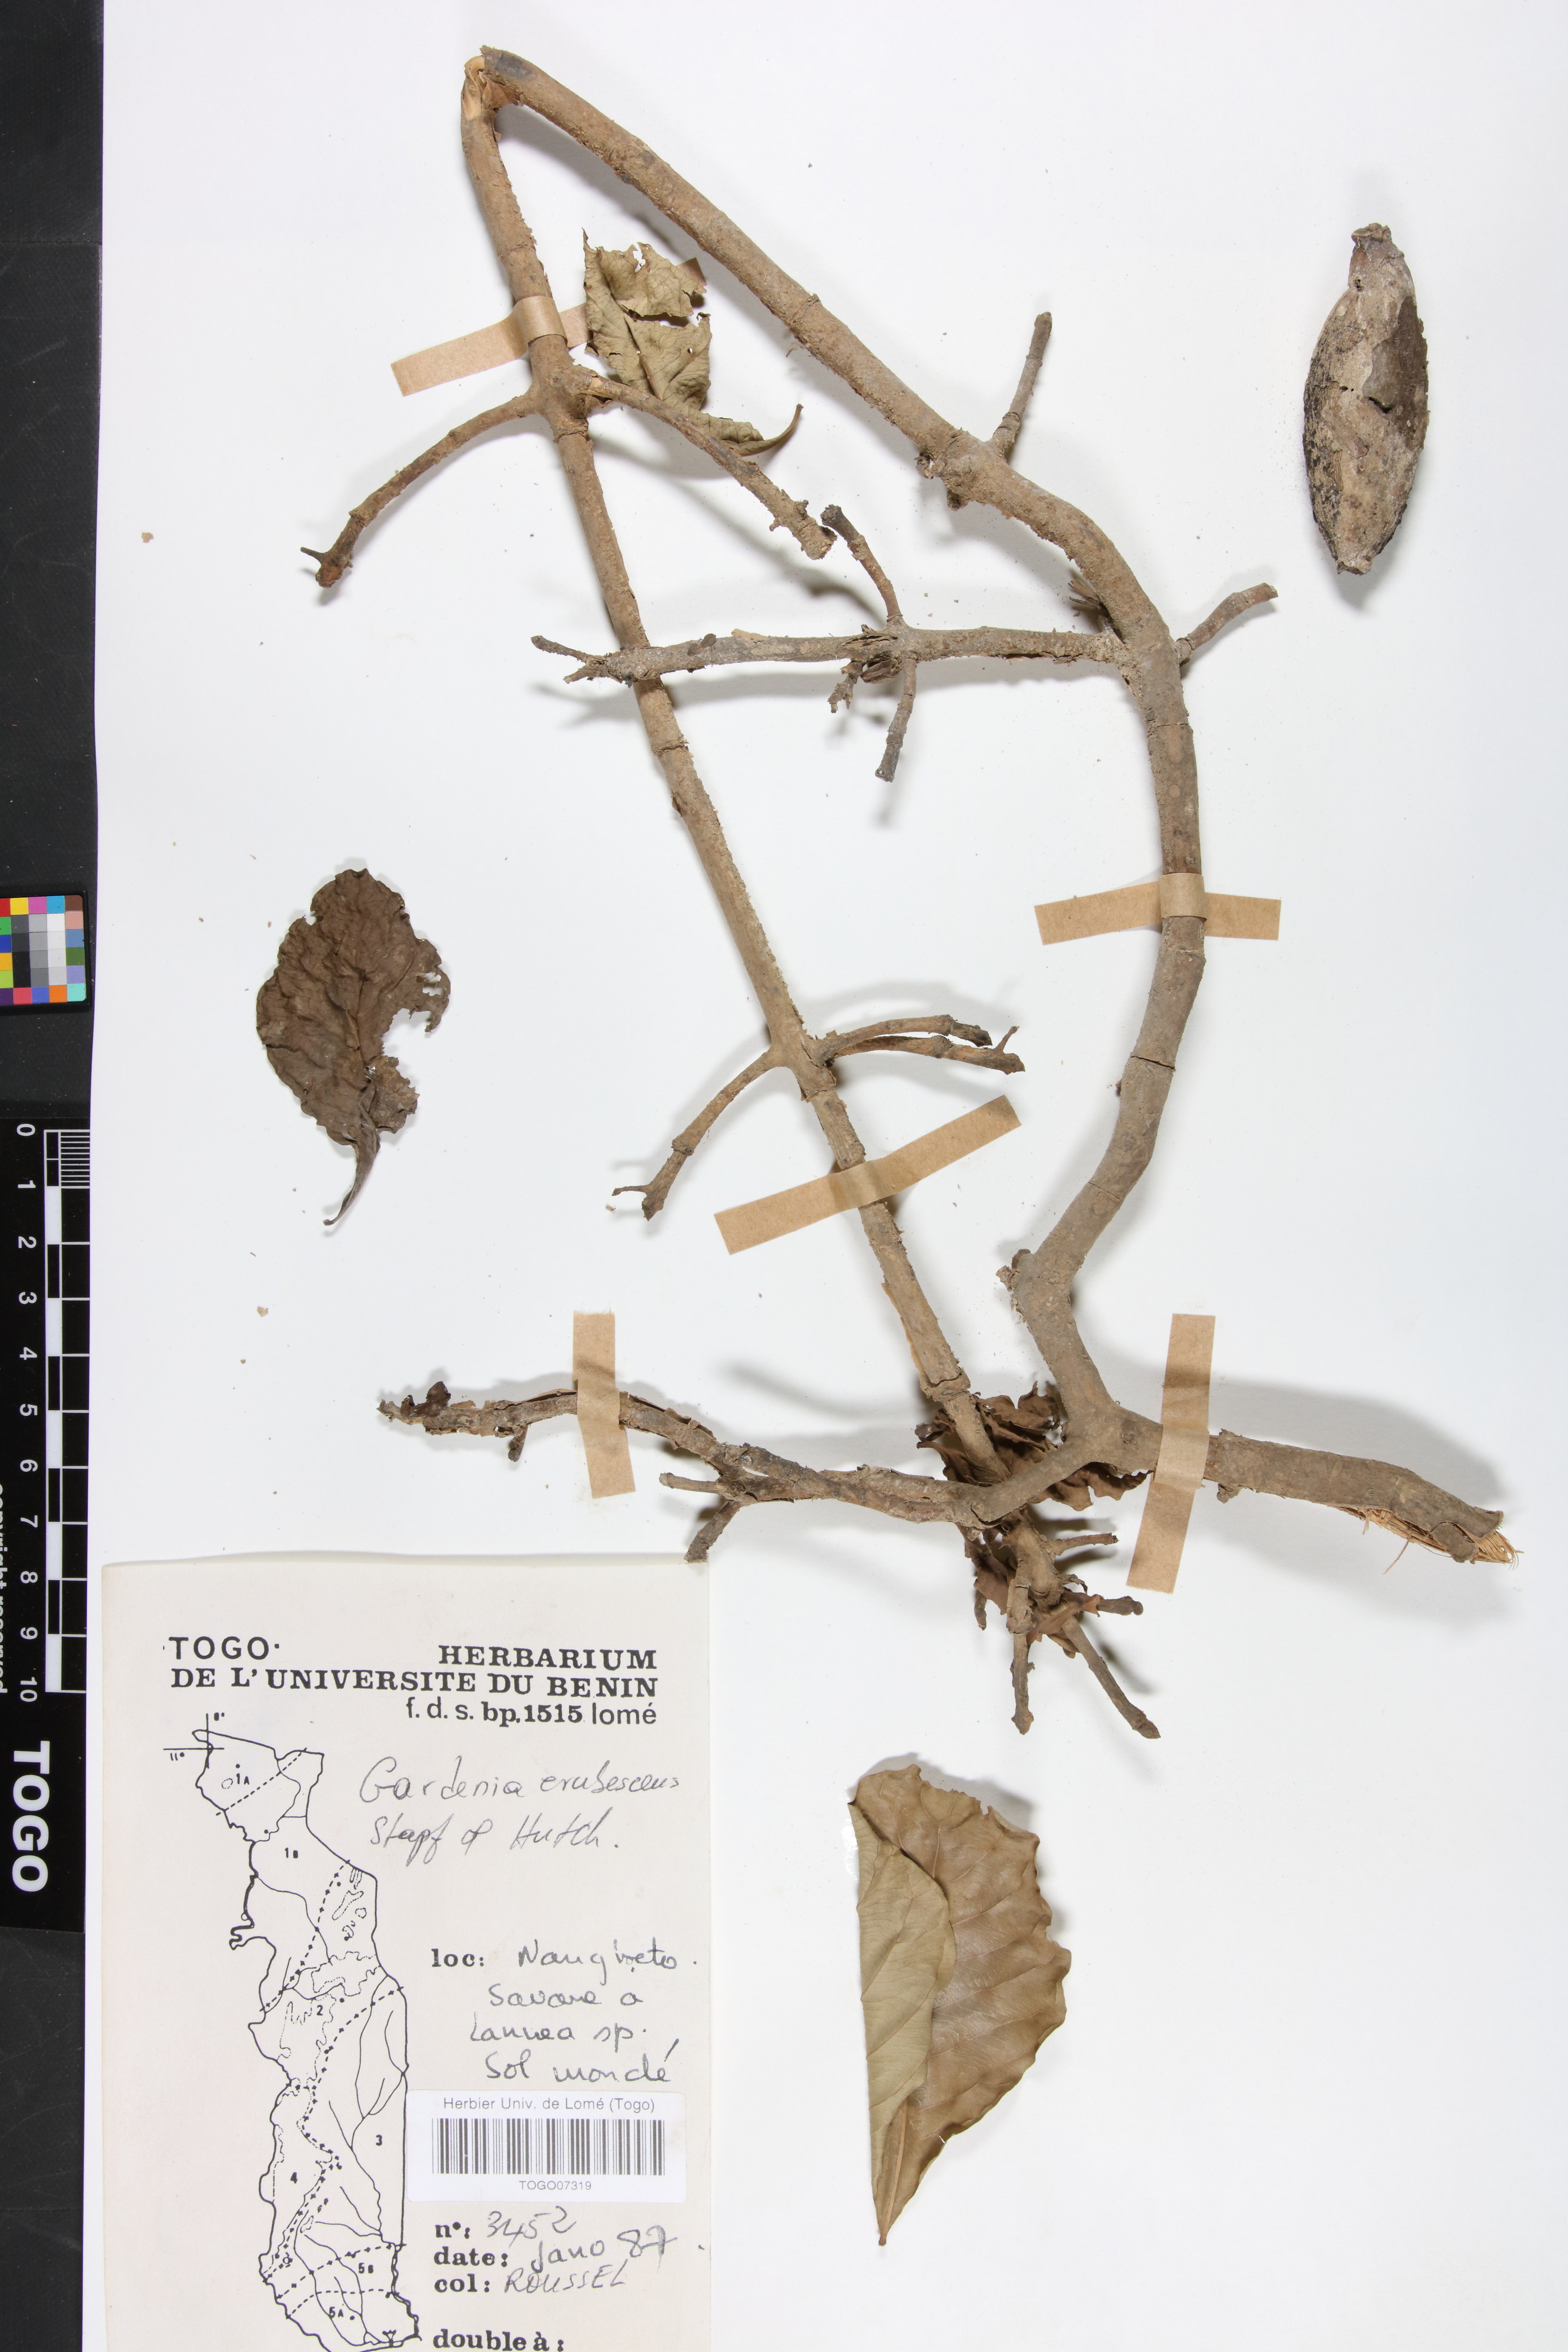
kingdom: Plantae
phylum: Tracheophyta
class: Magnoliopsida
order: Gentianales
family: Rubiaceae
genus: Gardenia
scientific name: Gardenia erubescens
